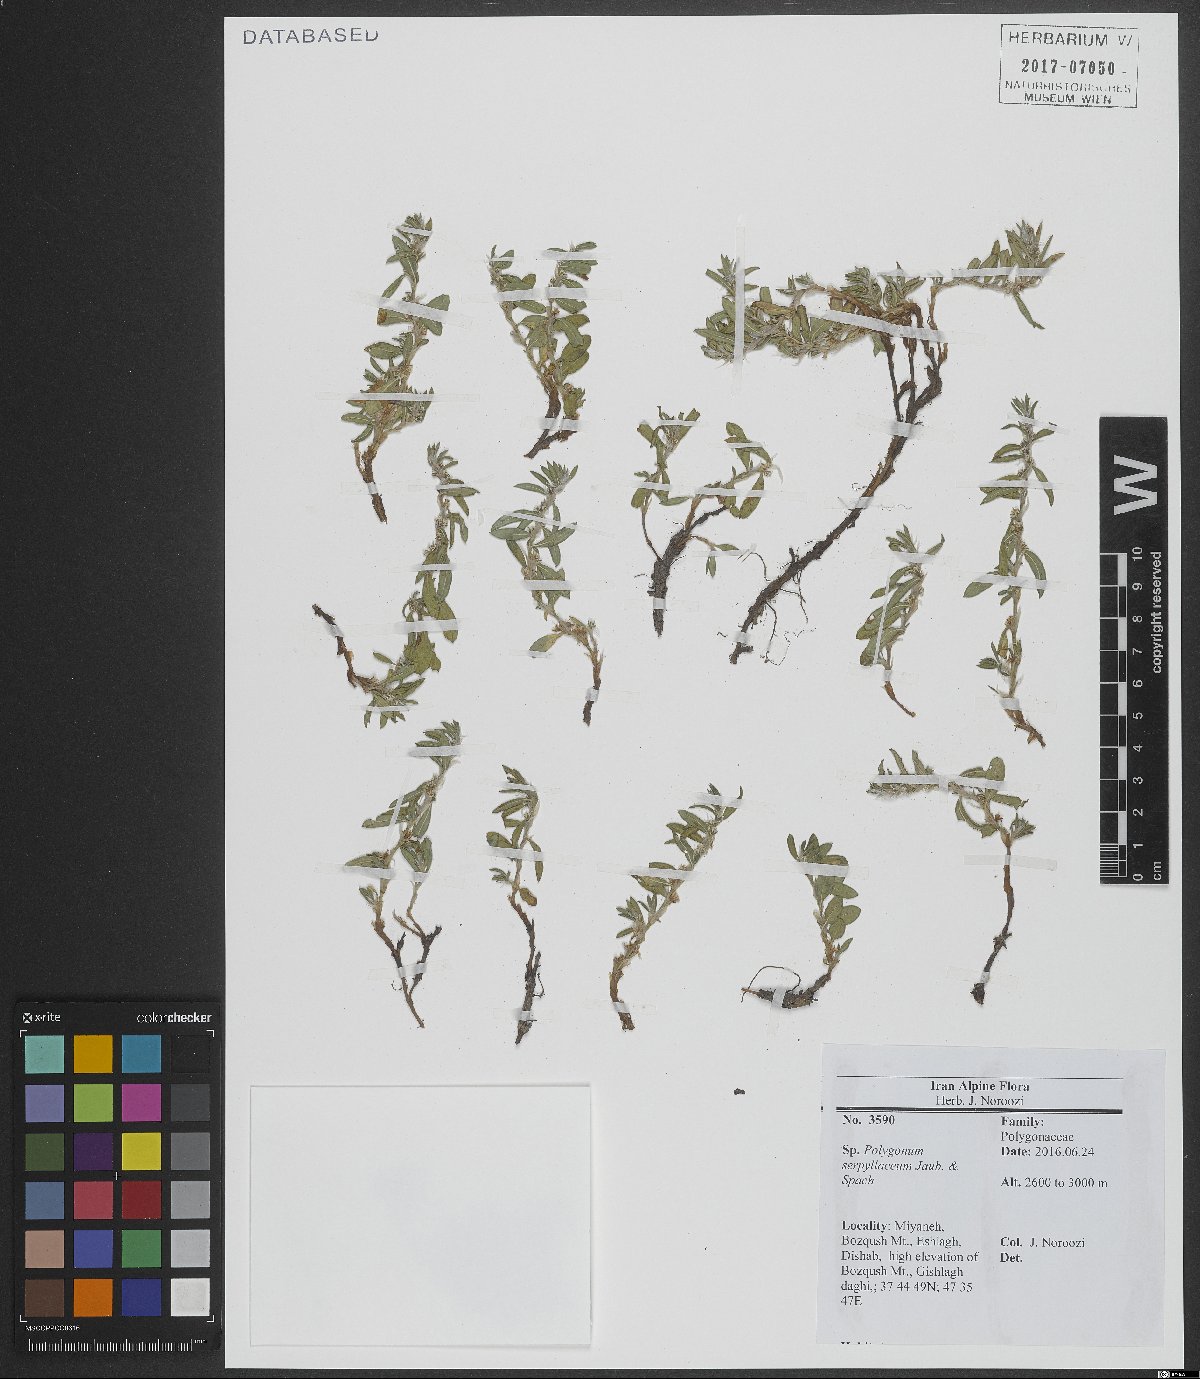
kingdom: Plantae
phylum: Tracheophyta
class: Magnoliopsida
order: Caryophyllales
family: Polygonaceae
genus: Polygonum
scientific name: Polygonum cognatum
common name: Indian knotgrass
